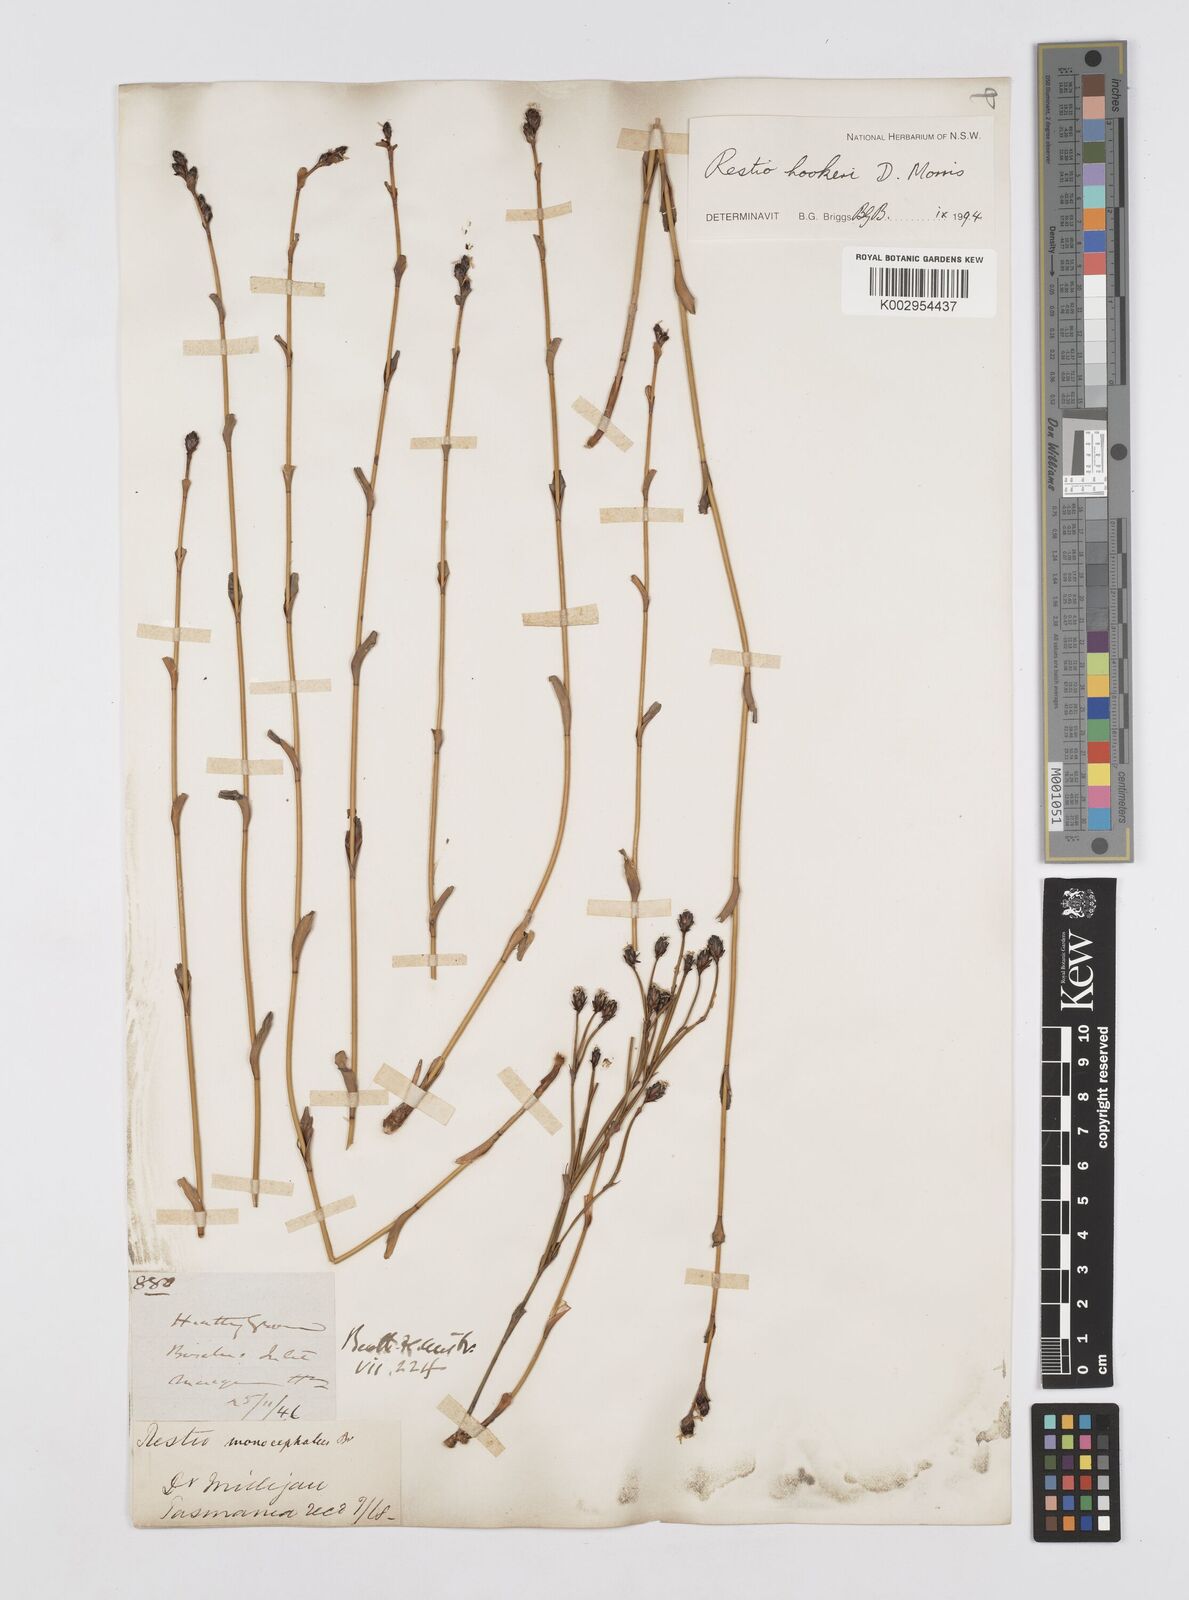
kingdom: Plantae
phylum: Tracheophyta
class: Liliopsida
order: Poales
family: Restionaceae
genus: Chordifex
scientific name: Chordifex hookeri
